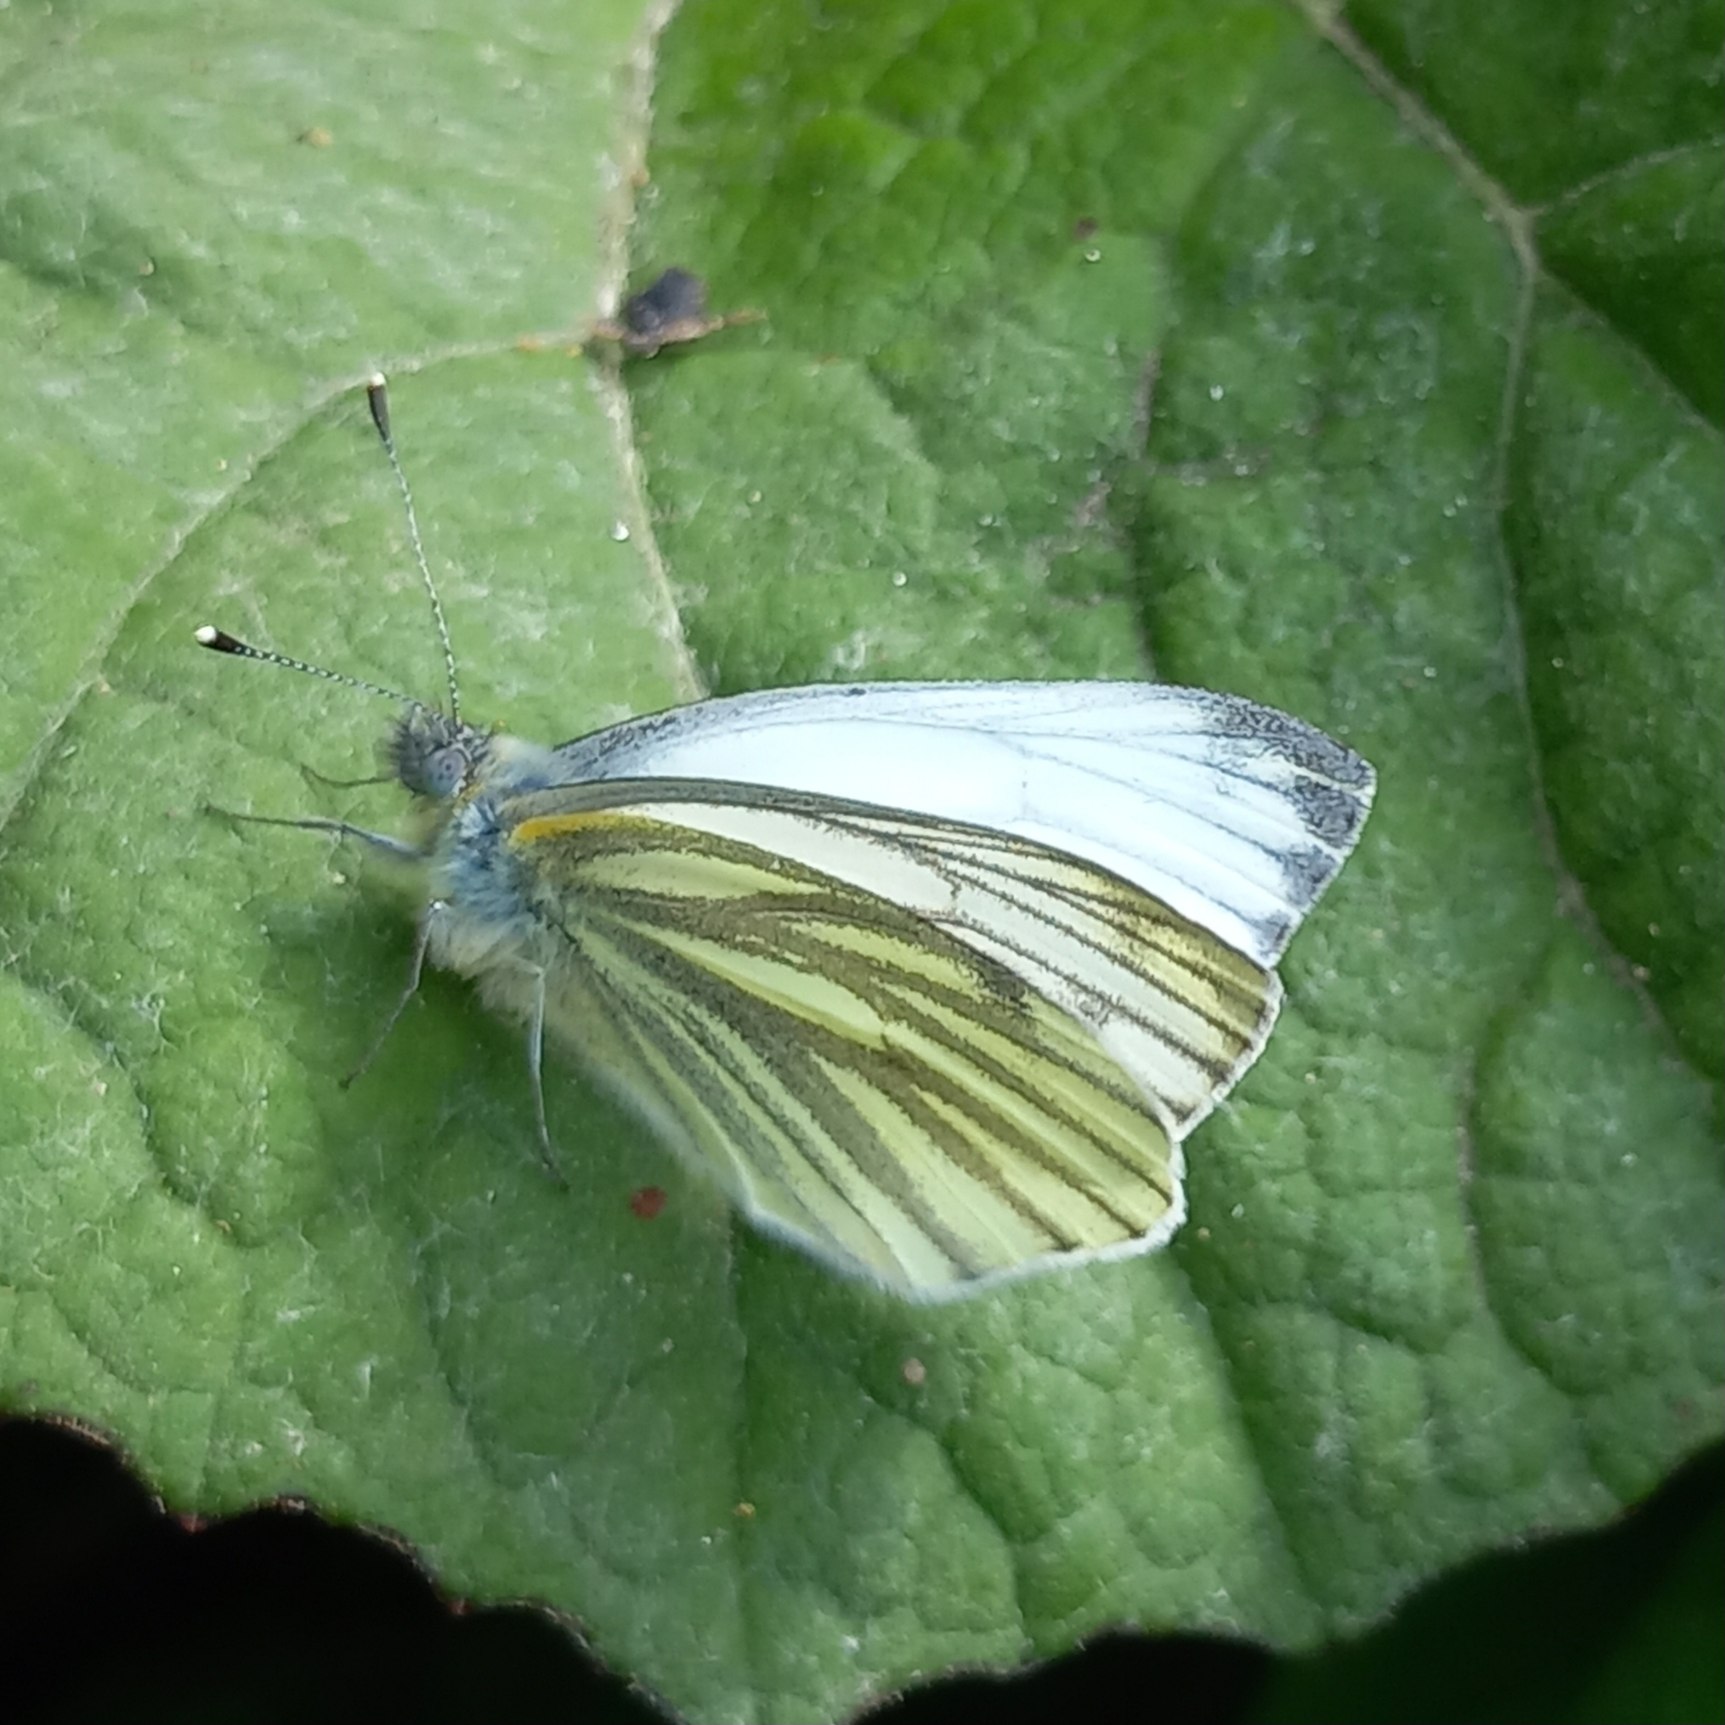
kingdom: Animalia
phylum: Arthropoda
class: Insecta
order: Lepidoptera
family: Pieridae
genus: Pieris
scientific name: Pieris napi
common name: Grønåret kålsommerfugl
